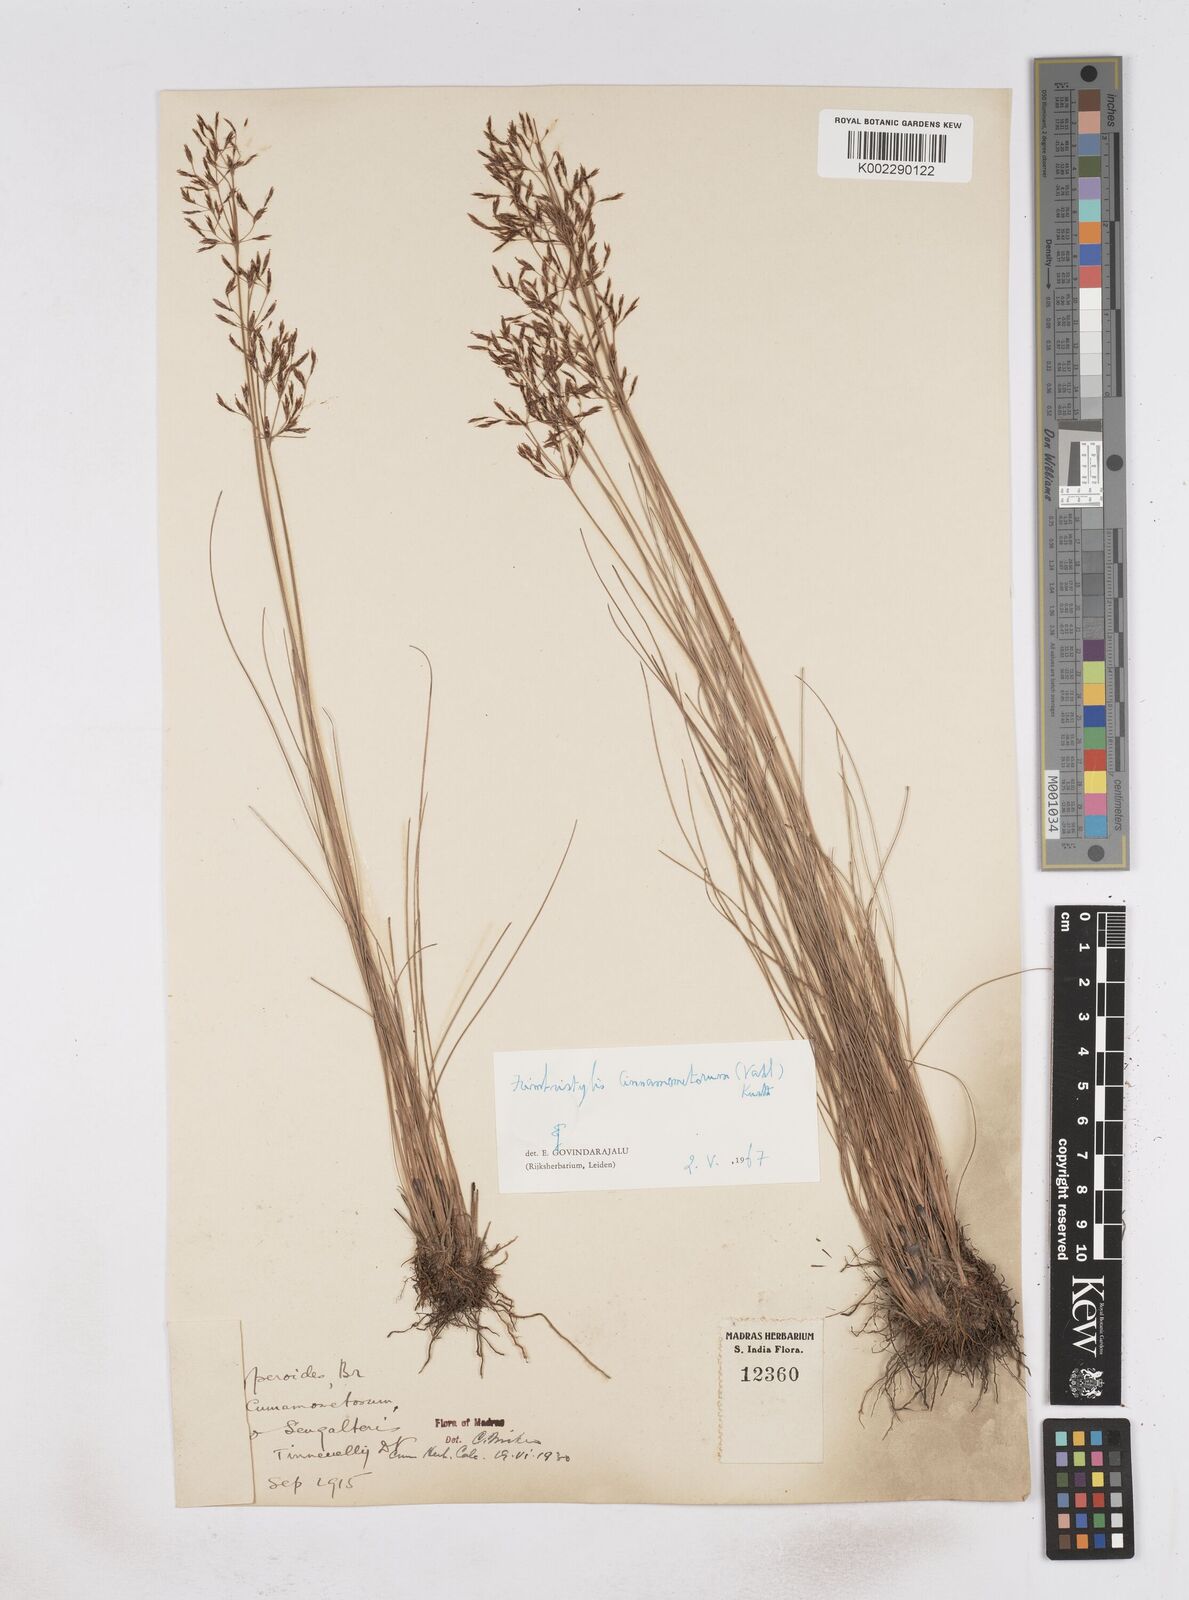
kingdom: Plantae
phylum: Tracheophyta
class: Liliopsida
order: Poales
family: Cyperaceae
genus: Fimbristylis
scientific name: Fimbristylis cinnamometorum
